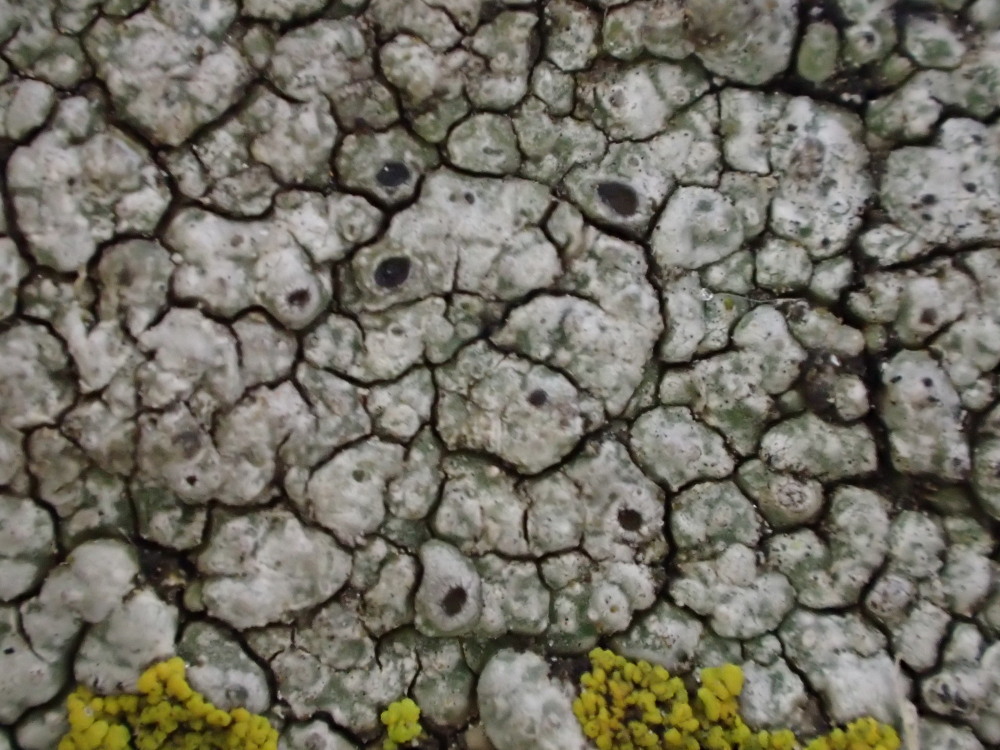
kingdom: Fungi
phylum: Ascomycota
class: Lecanoromycetes
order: Pertusariales
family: Megasporaceae
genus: Circinaria
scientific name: Circinaria caesiocinerea
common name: fuglestens-hulskivelav
